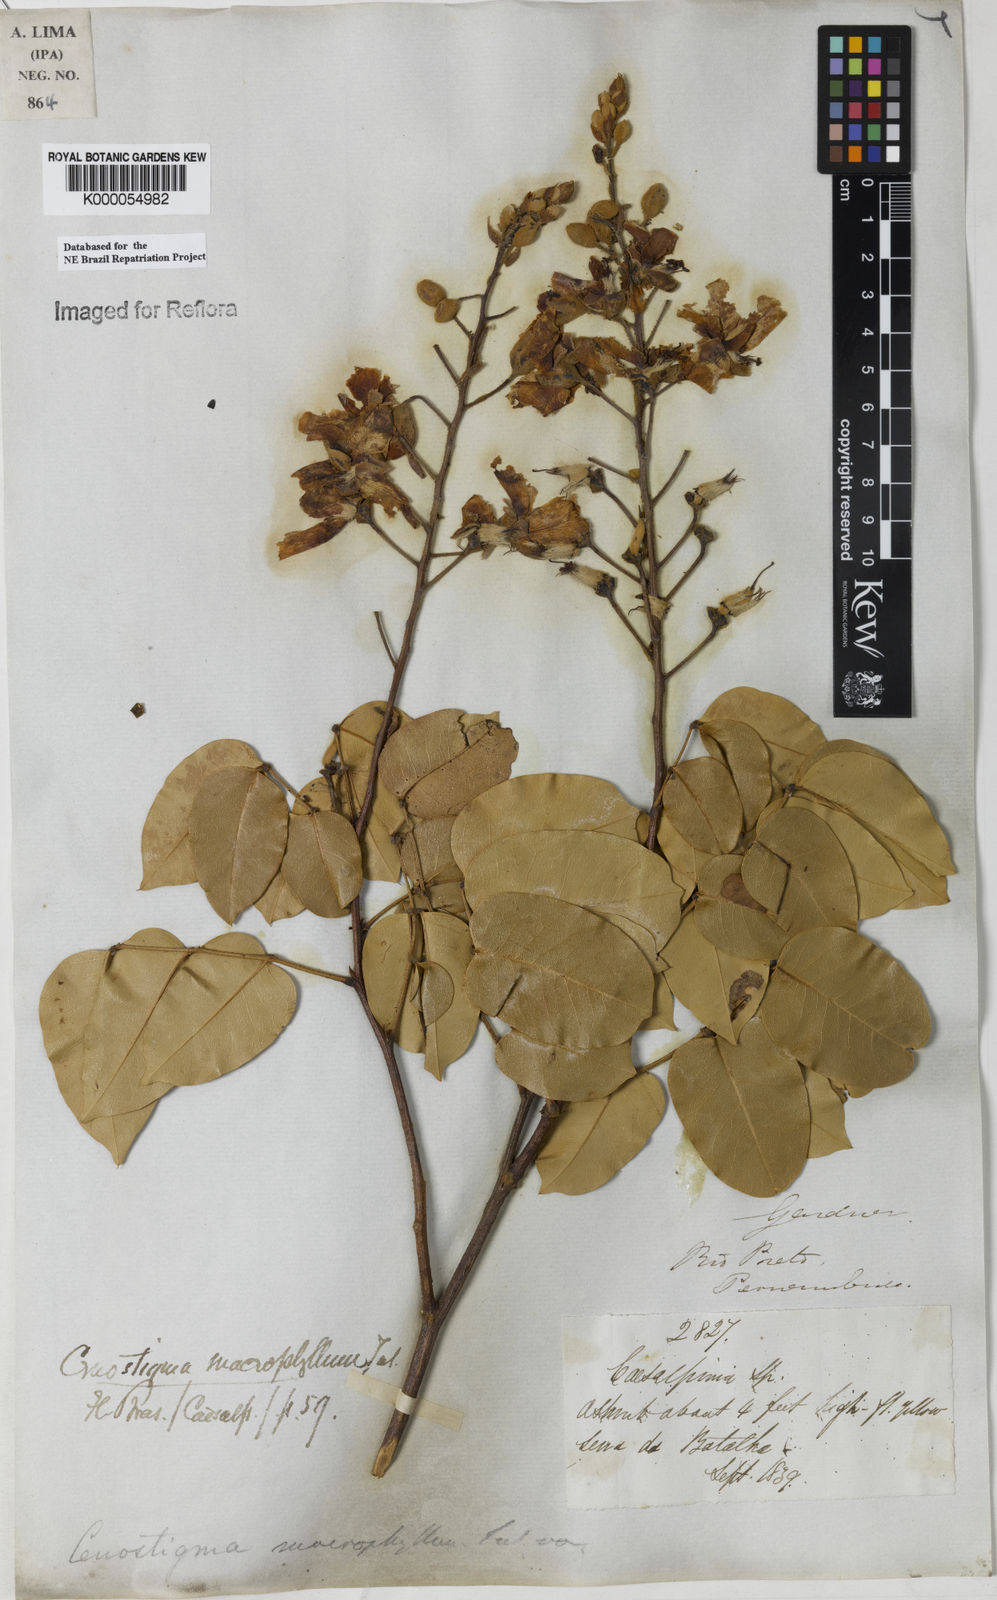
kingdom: Plantae
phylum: Tracheophyta
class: Magnoliopsida
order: Fabales
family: Fabaceae
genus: Cenostigma
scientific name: Cenostigma macrophyllum
